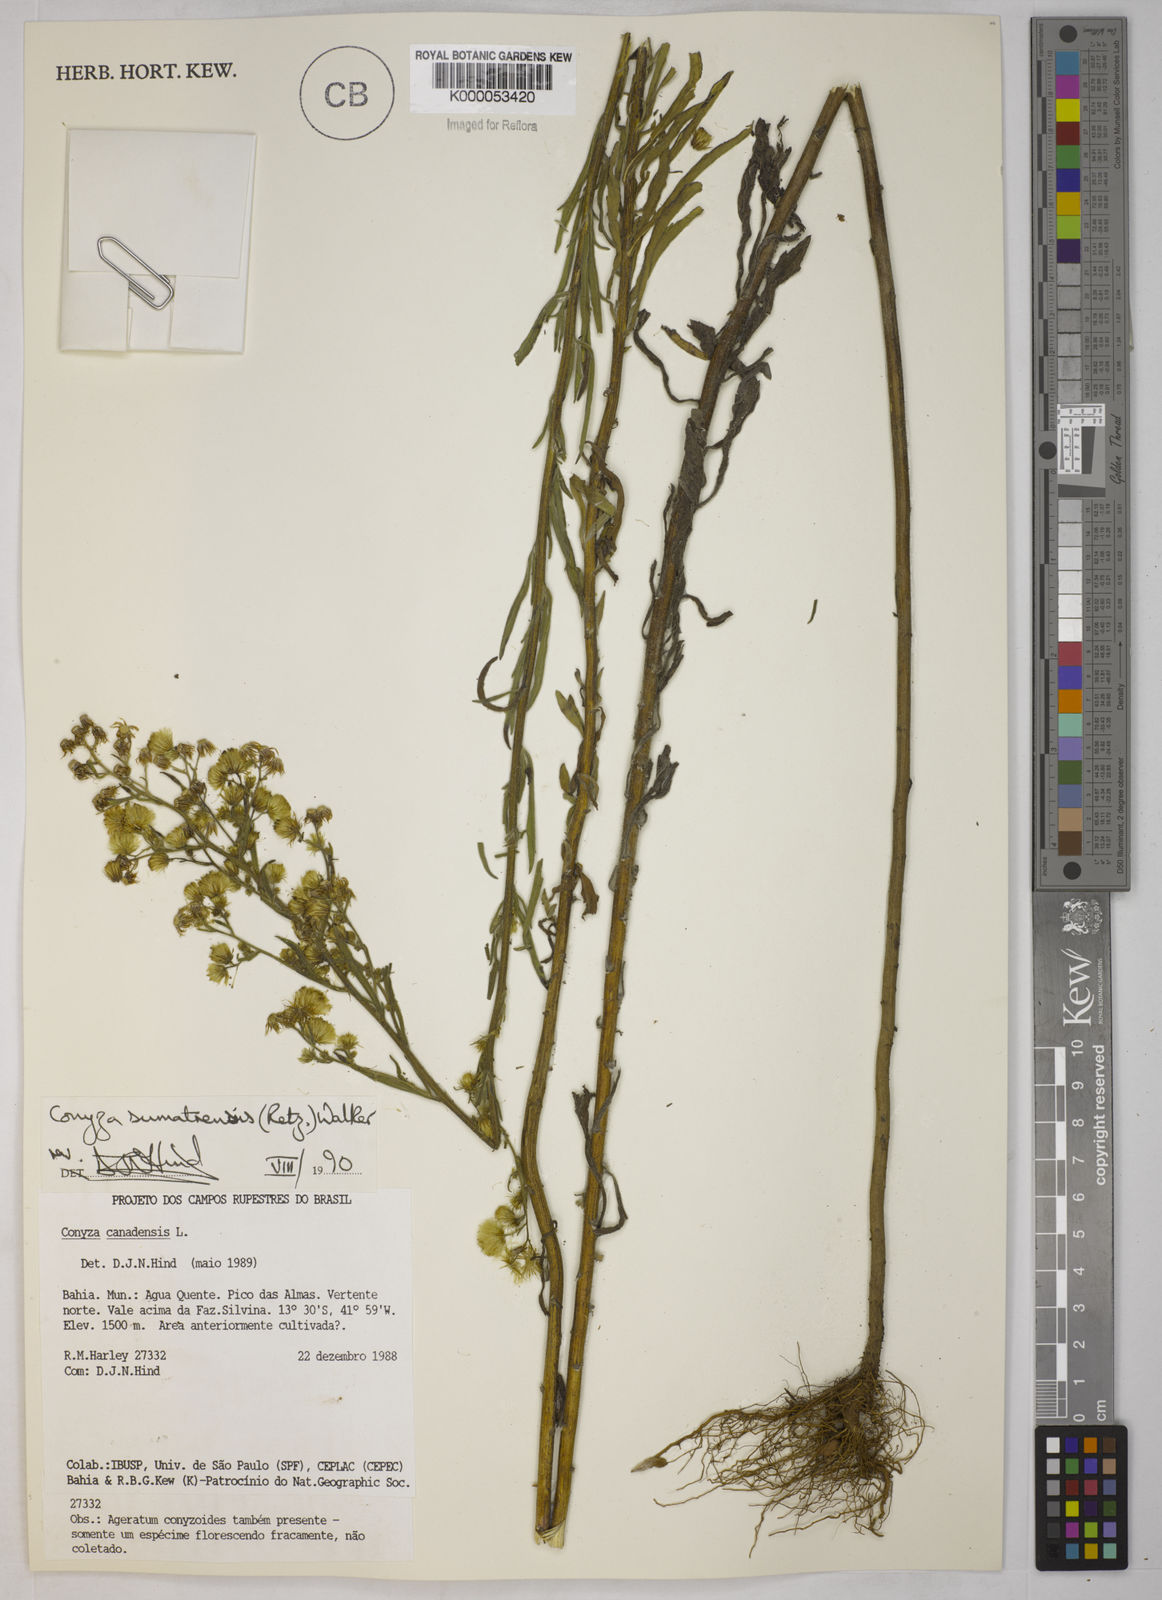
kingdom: Plantae
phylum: Tracheophyta
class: Magnoliopsida
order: Asterales
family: Asteraceae
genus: Erigeron
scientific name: Erigeron sumatrensis
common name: Daisy
